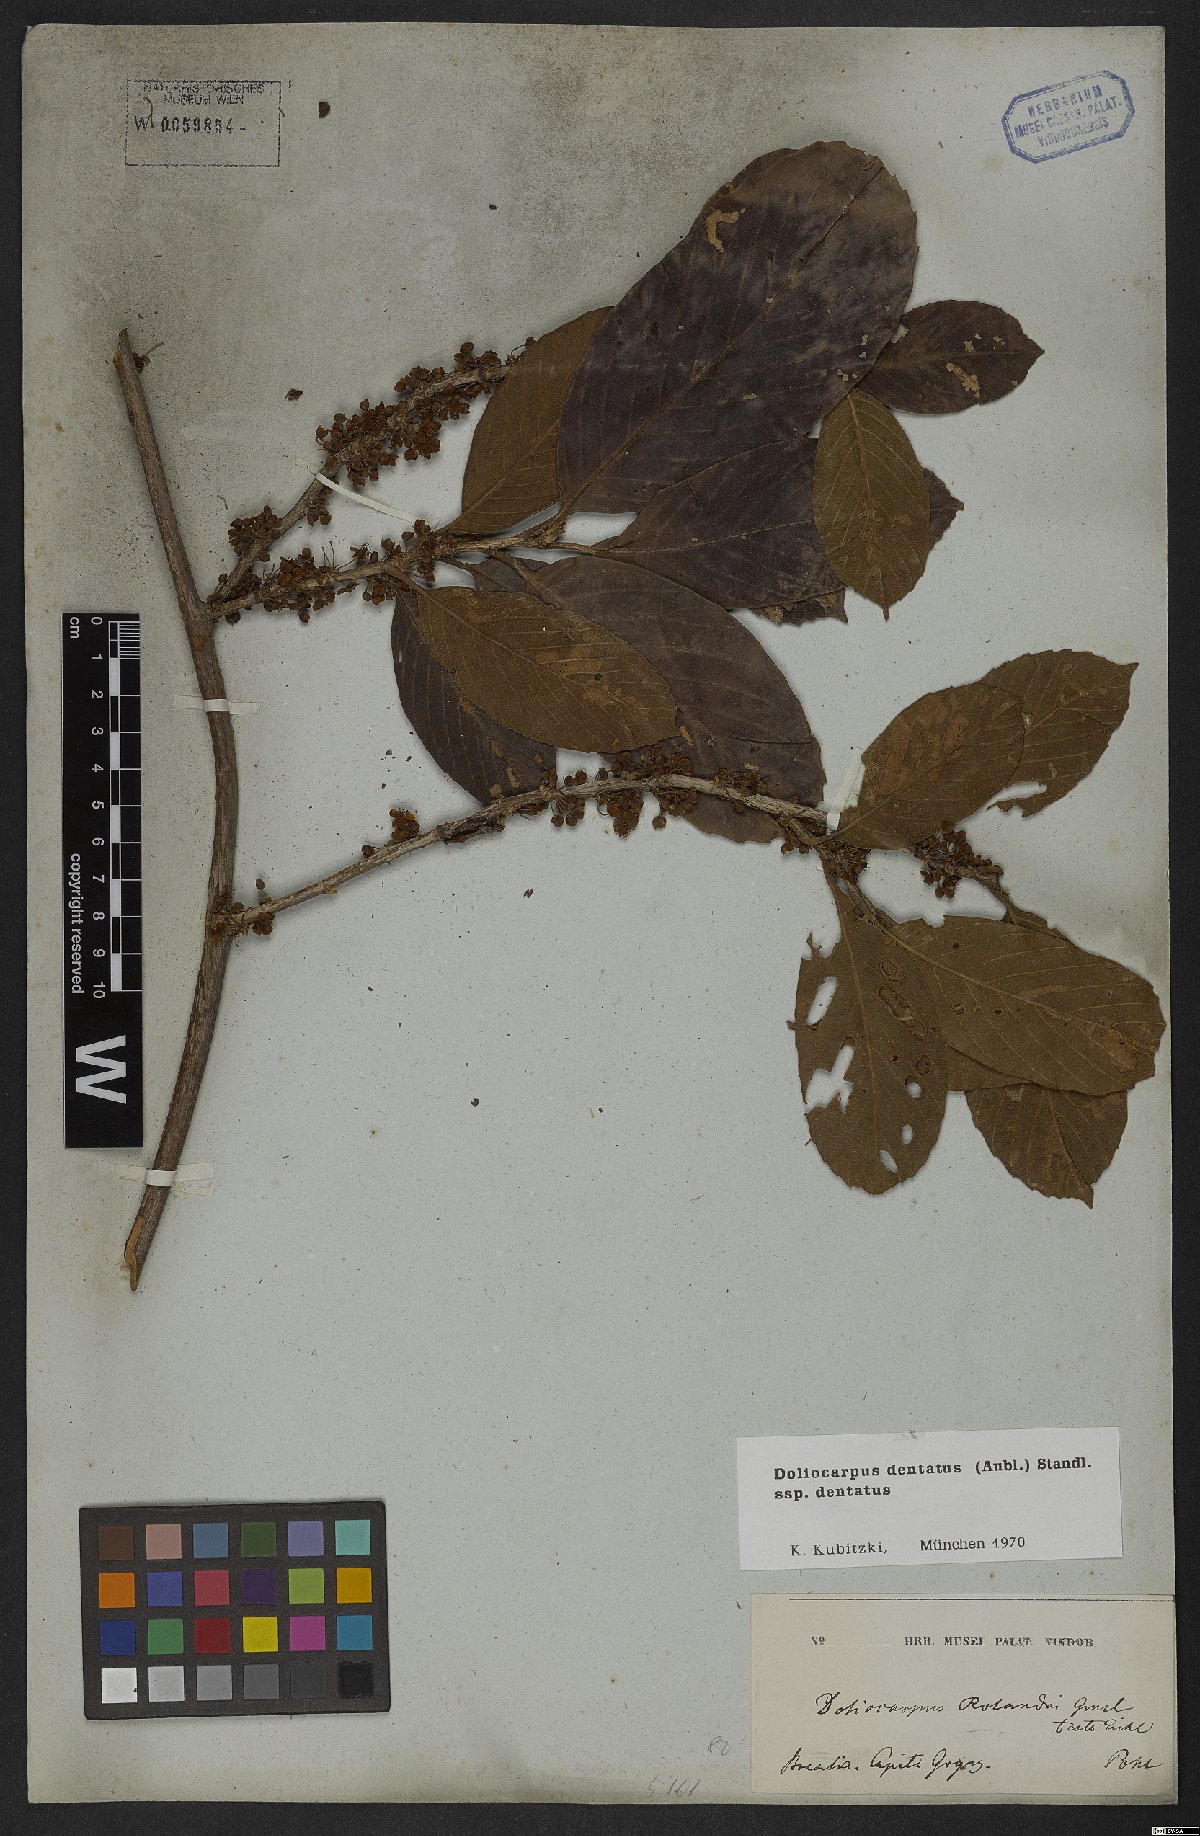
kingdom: Plantae
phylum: Tracheophyta
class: Magnoliopsida
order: Dilleniales
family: Dilleniaceae
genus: Doliocarpus
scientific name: Doliocarpus dentatus
